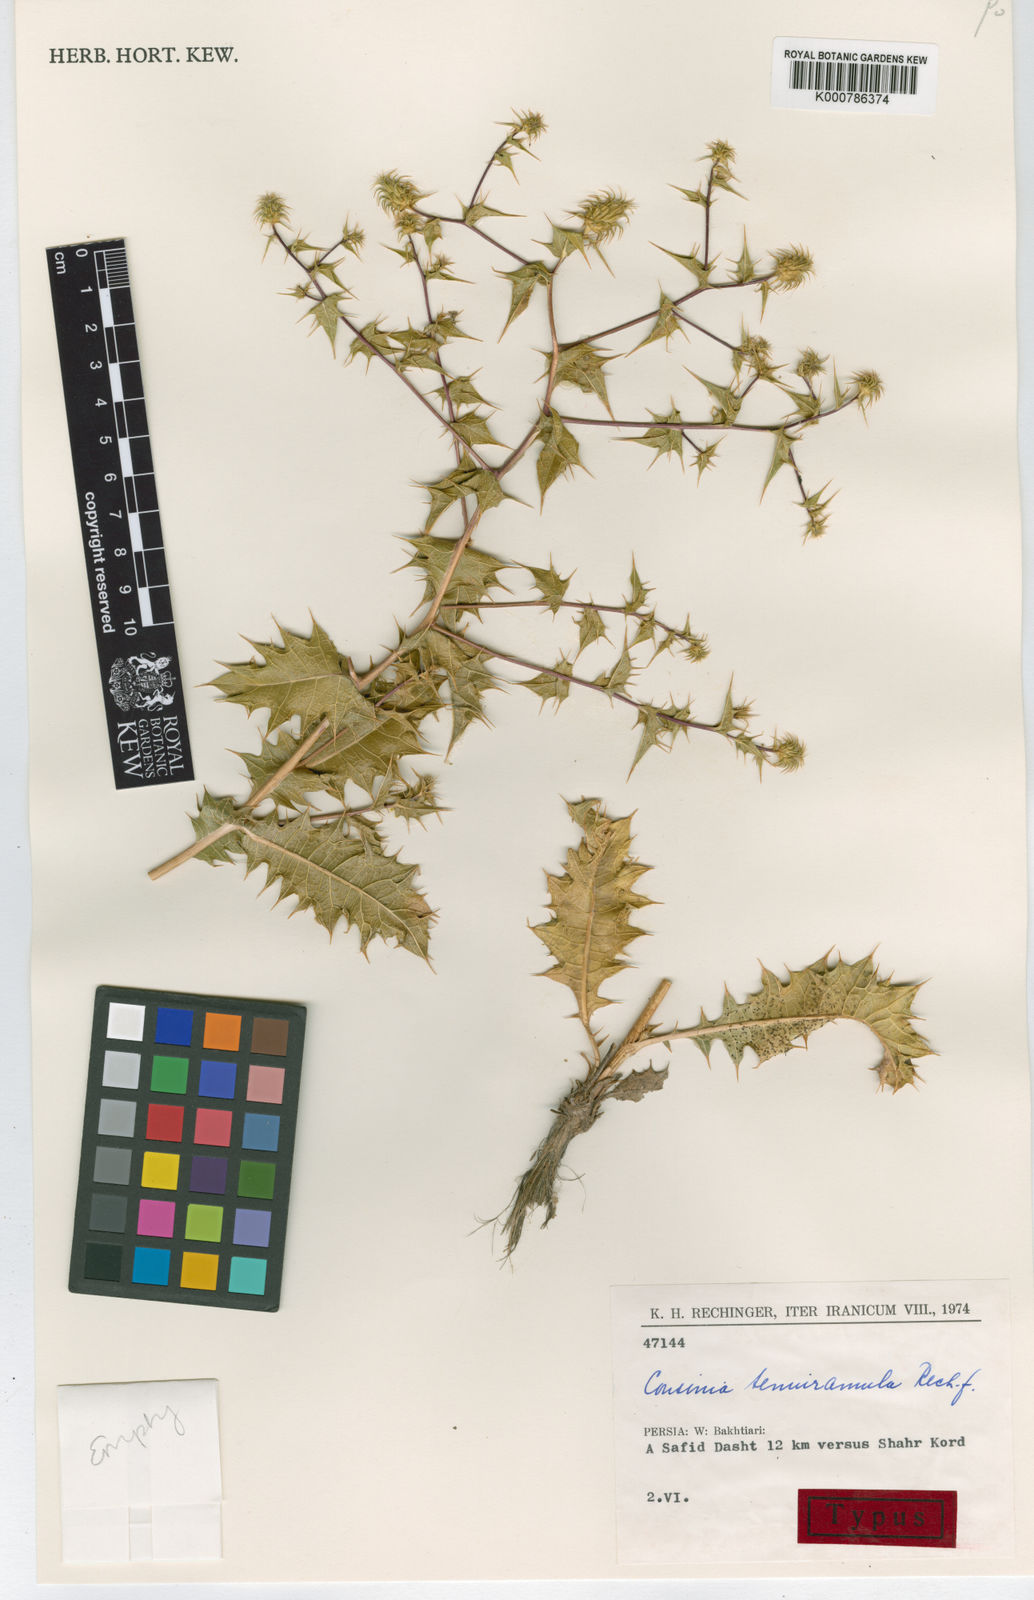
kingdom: Plantae
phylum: Tracheophyta
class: Magnoliopsida
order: Asterales
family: Asteraceae
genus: Cousinia
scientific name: Cousinia tenuiramula
